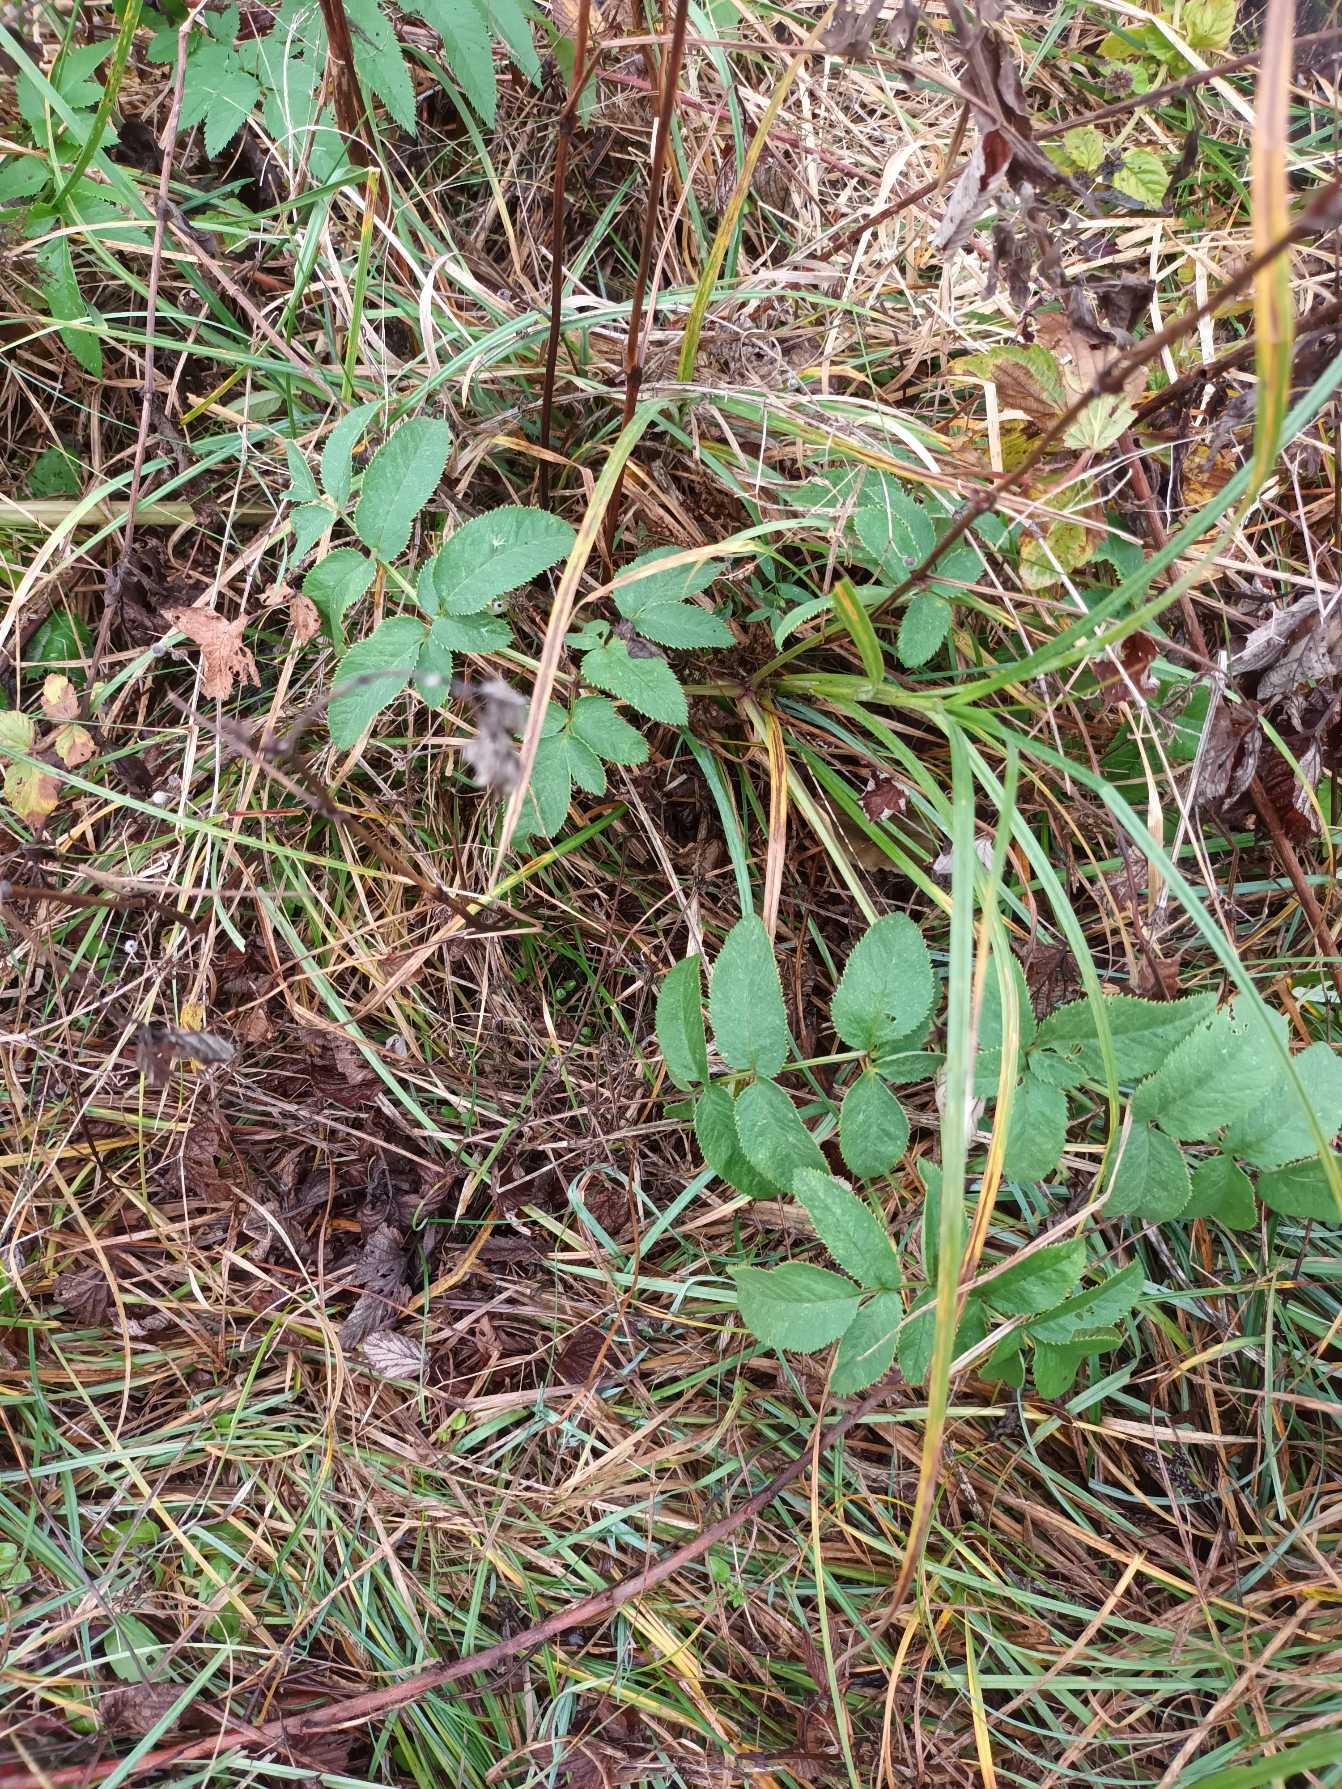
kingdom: Plantae
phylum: Tracheophyta
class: Magnoliopsida
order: Apiales
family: Apiaceae
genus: Angelica
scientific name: Angelica sylvestris
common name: Angelik
